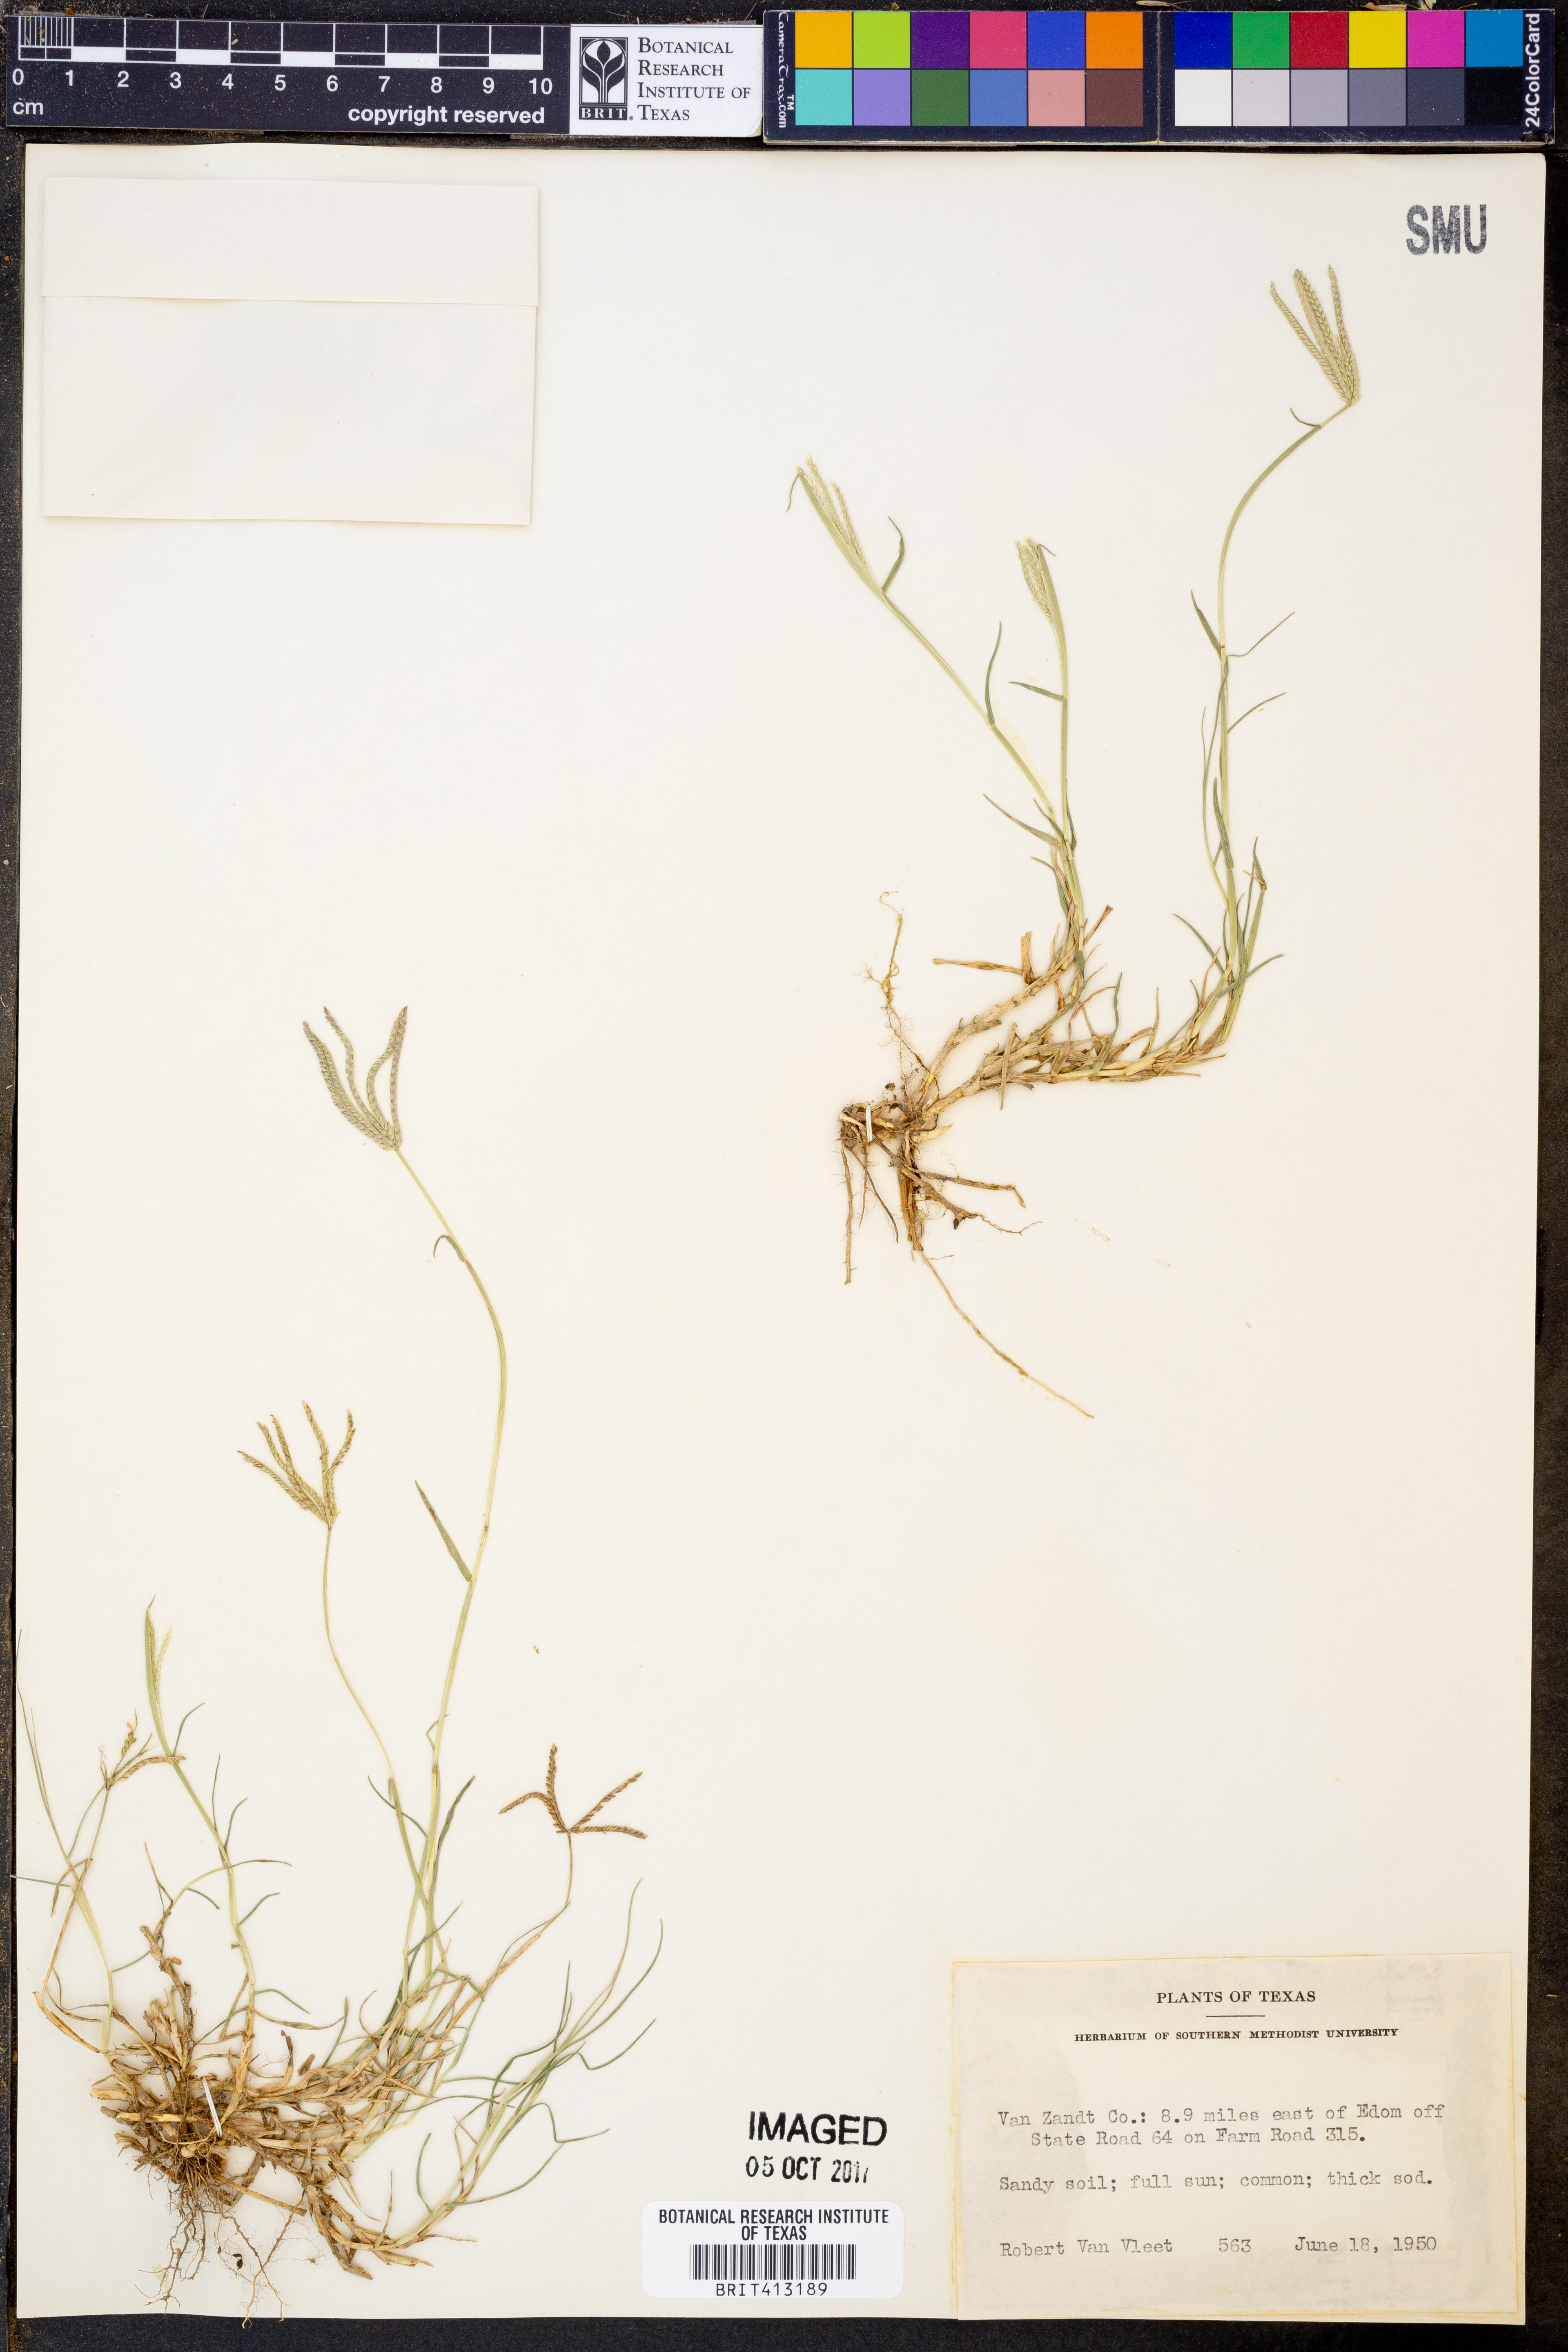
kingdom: Plantae
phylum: Tracheophyta
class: Liliopsida
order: Poales
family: Poaceae
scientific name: Poaceae
